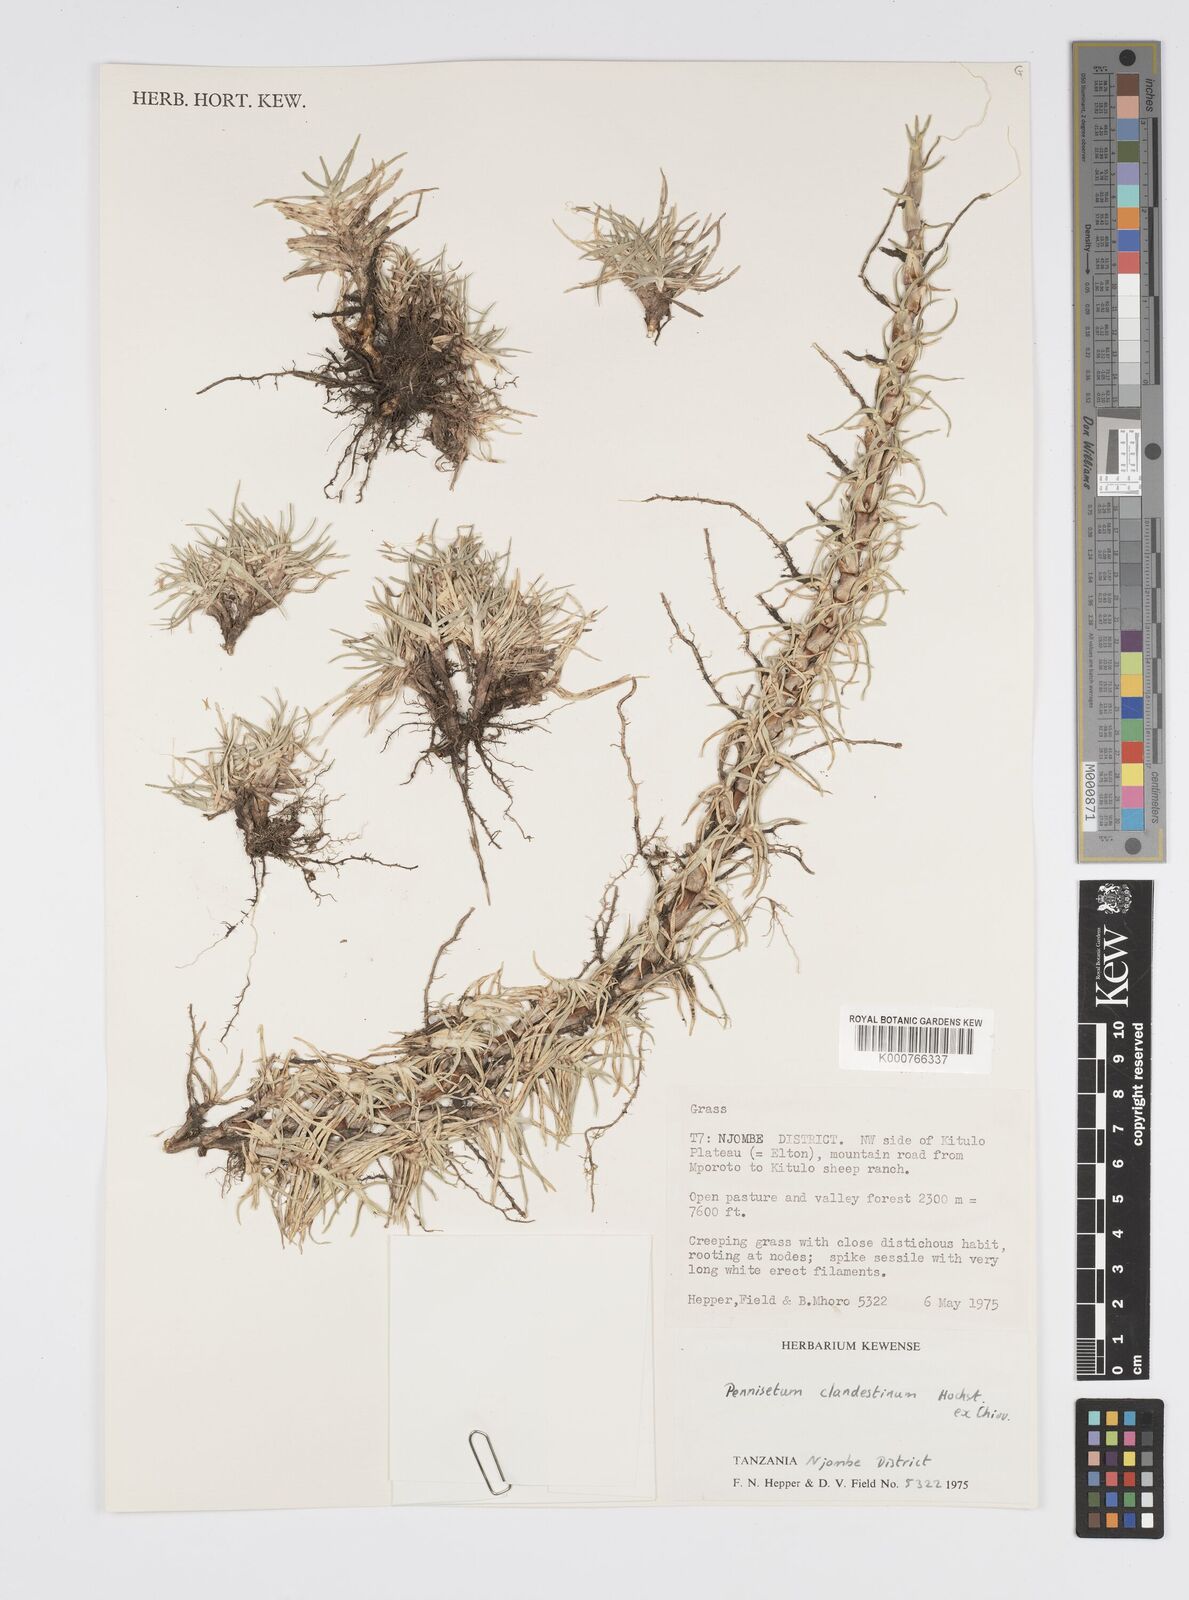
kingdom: Plantae
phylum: Tracheophyta
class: Liliopsida
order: Poales
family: Poaceae
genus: Cenchrus
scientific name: Cenchrus clandestinus
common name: Kikuyugrass
